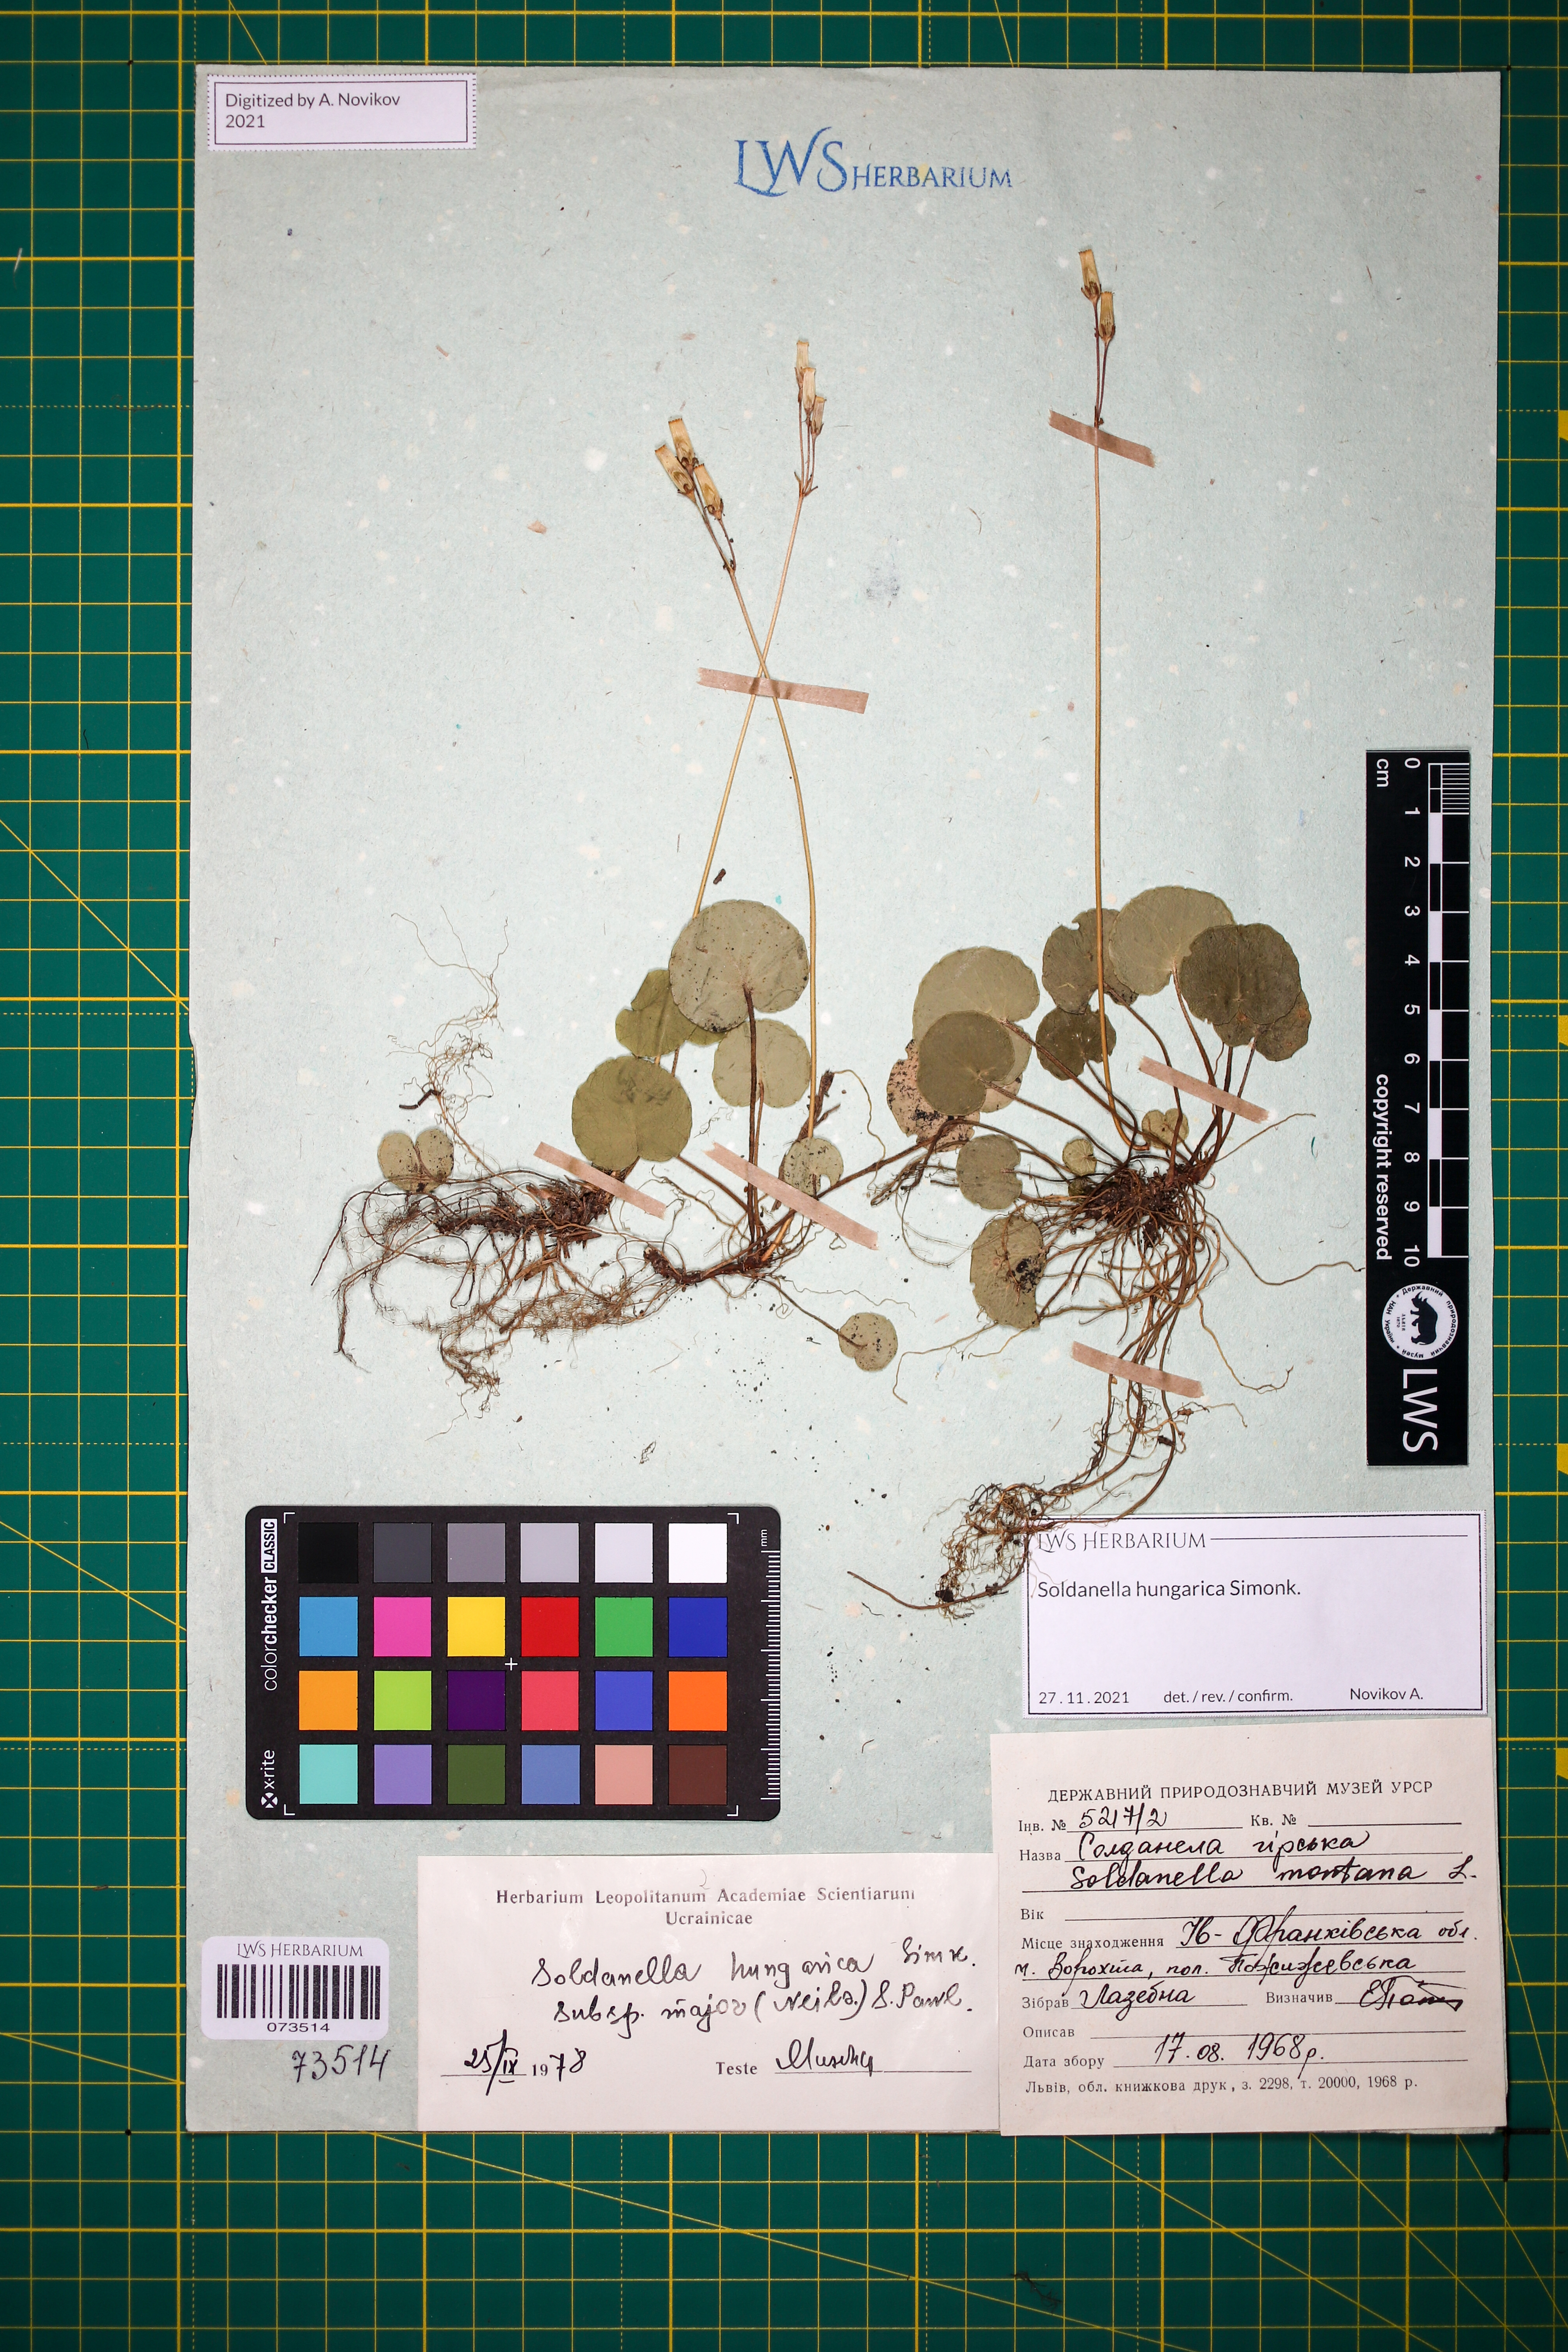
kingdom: Plantae
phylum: Tracheophyta
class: Magnoliopsida
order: Ericales
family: Primulaceae
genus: Soldanella
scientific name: Soldanella hungarica
